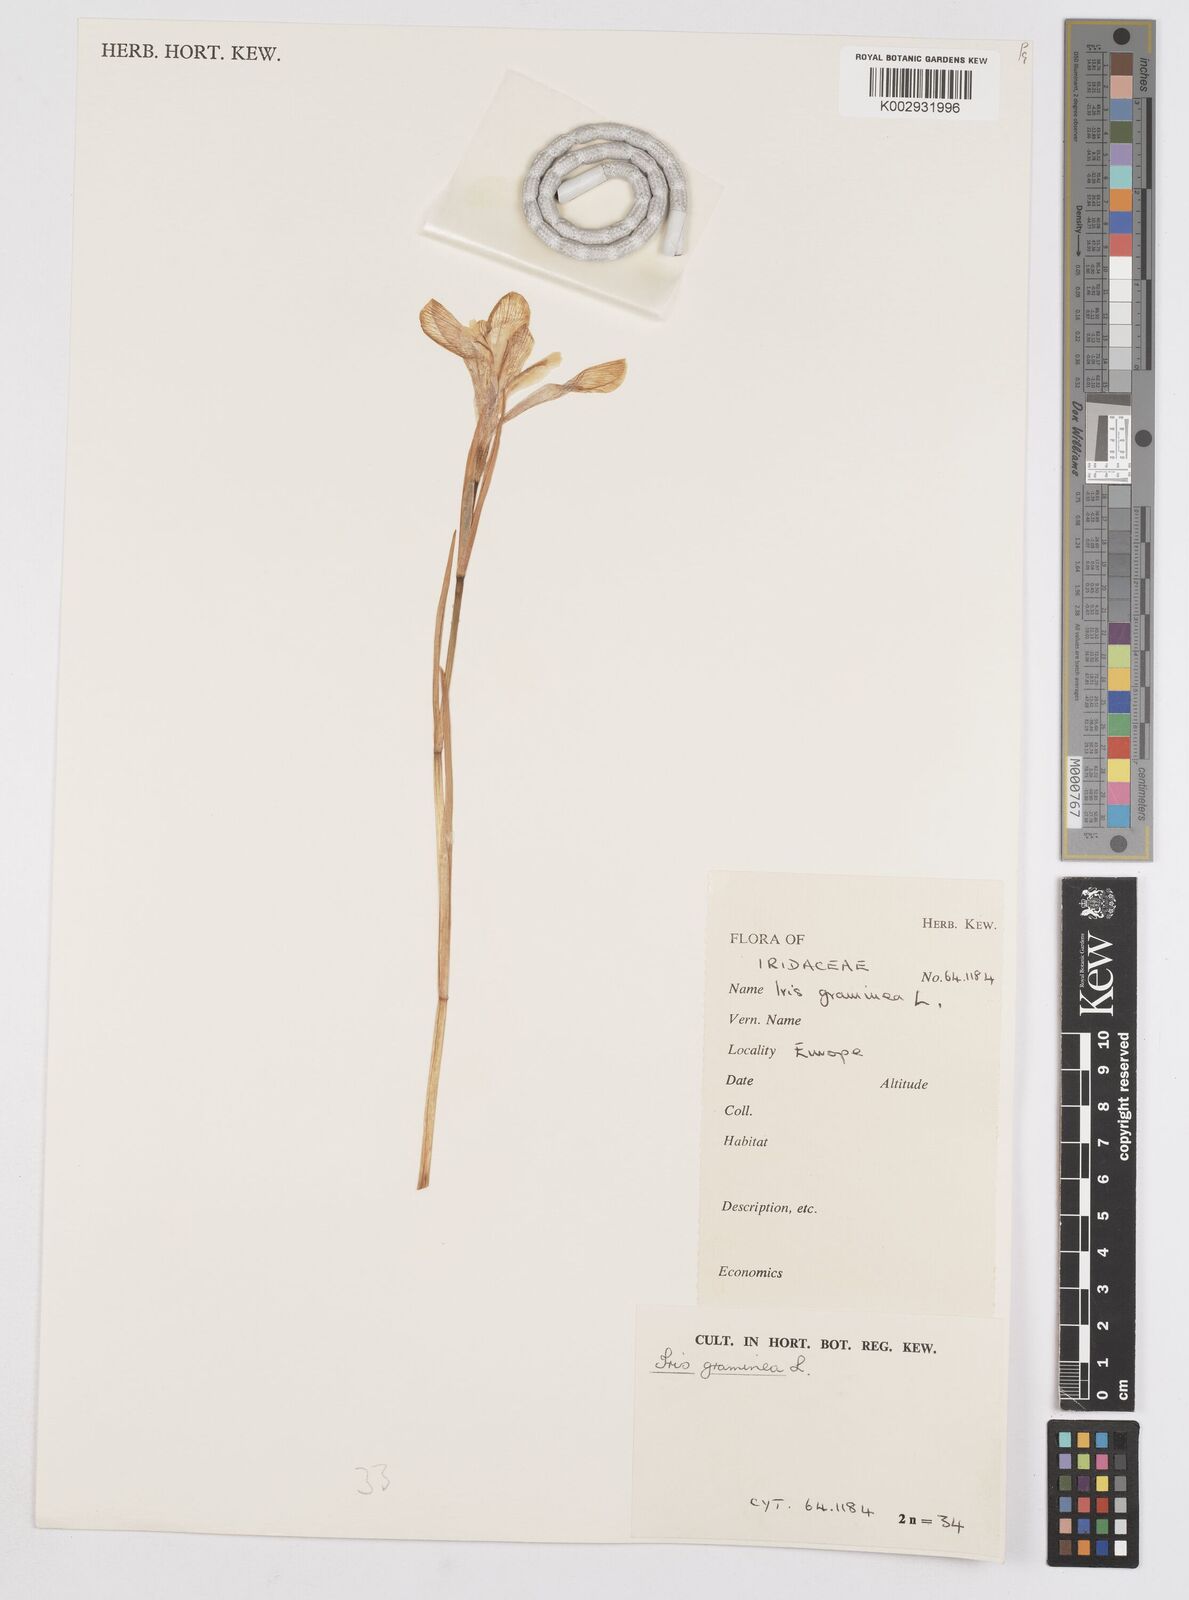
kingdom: Plantae
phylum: Tracheophyta
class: Liliopsida
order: Asparagales
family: Iridaceae
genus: Iris
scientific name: Iris graminea
